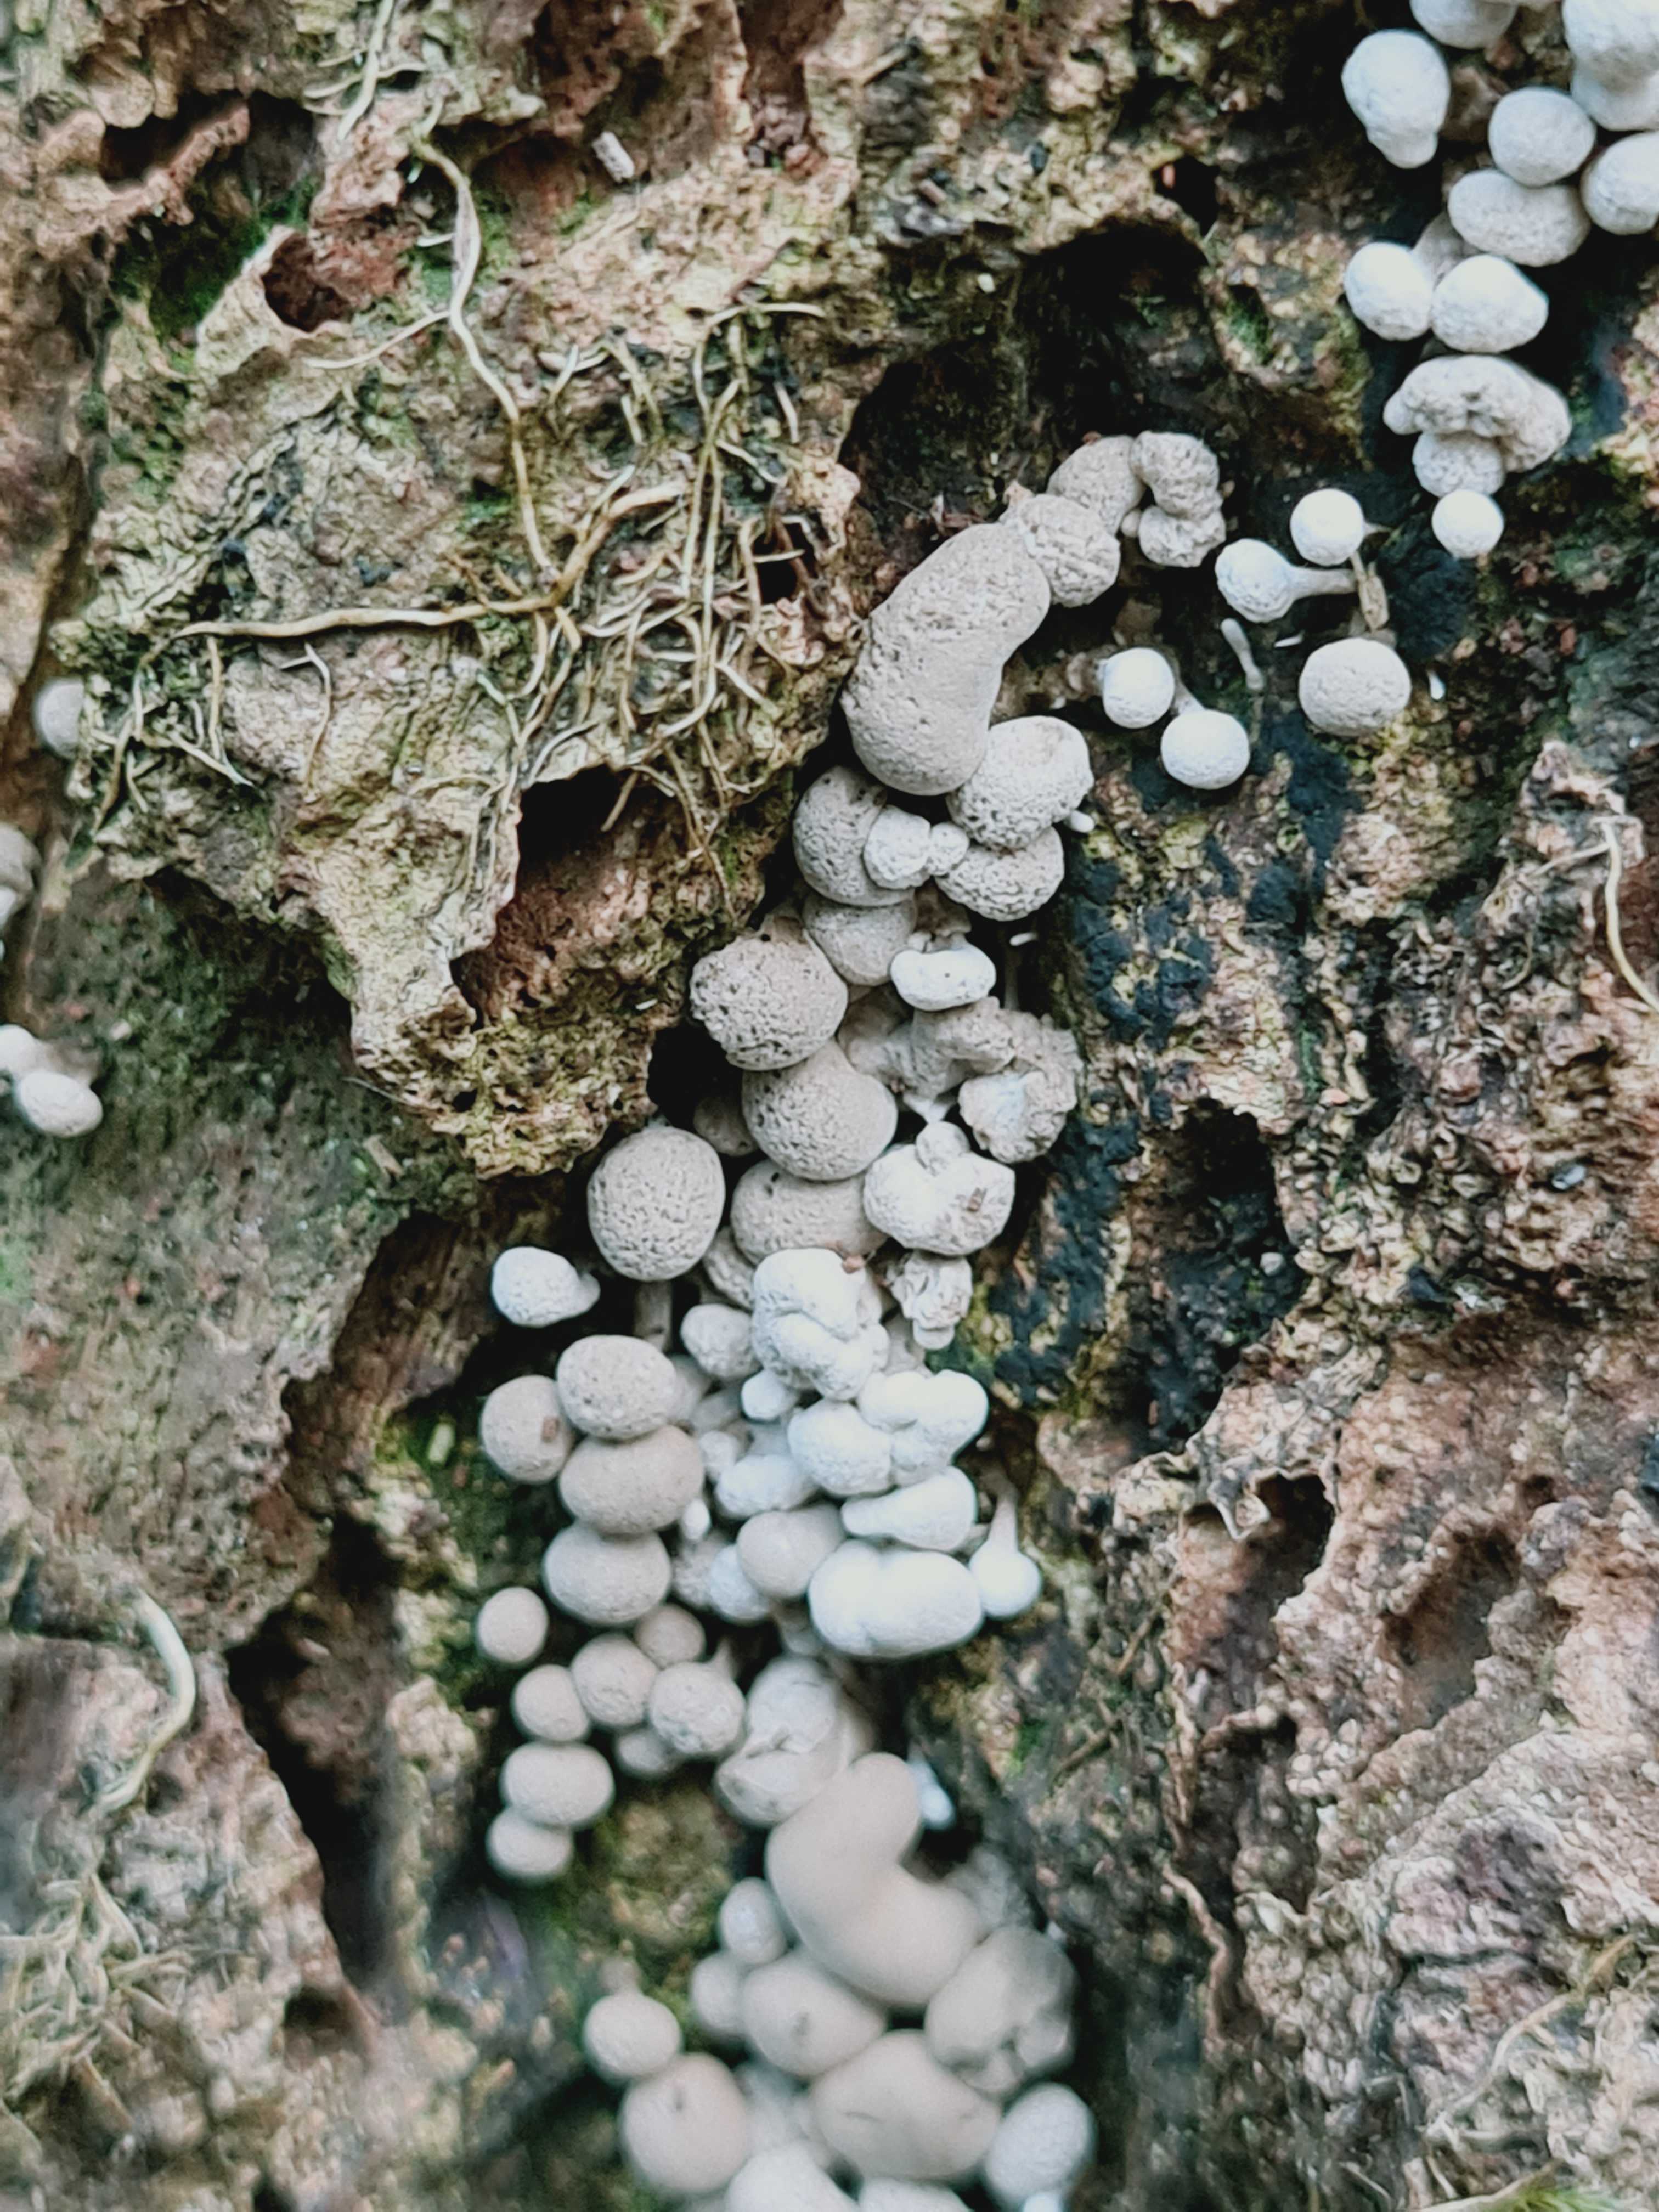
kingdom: Fungi
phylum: Basidiomycota
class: Atractiellomycetes
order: Atractiellales
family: Phleogenaceae
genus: Phleogena
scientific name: Phleogena faginea
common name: pudderkølle
